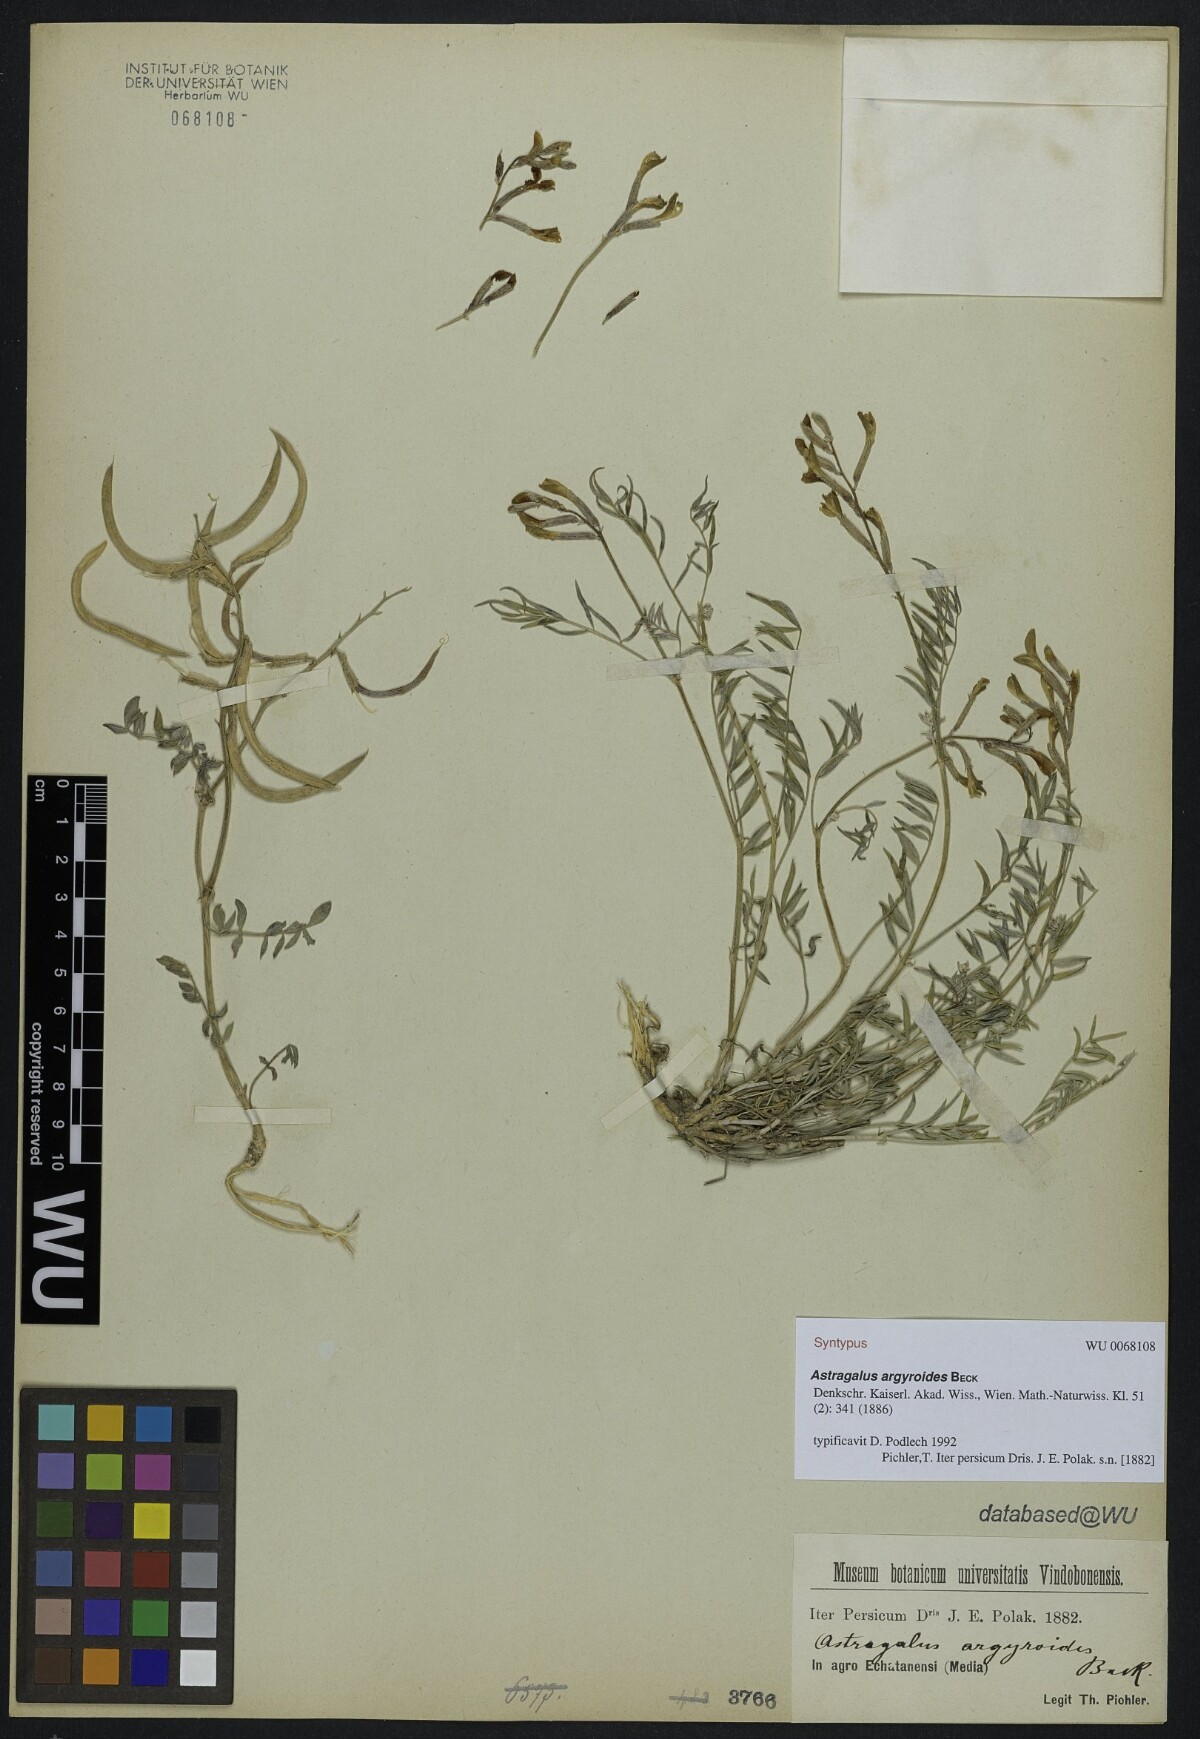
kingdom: Plantae
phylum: Tracheophyta
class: Magnoliopsida
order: Fabales
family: Fabaceae
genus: Astragalus
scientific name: Astragalus argyroides
